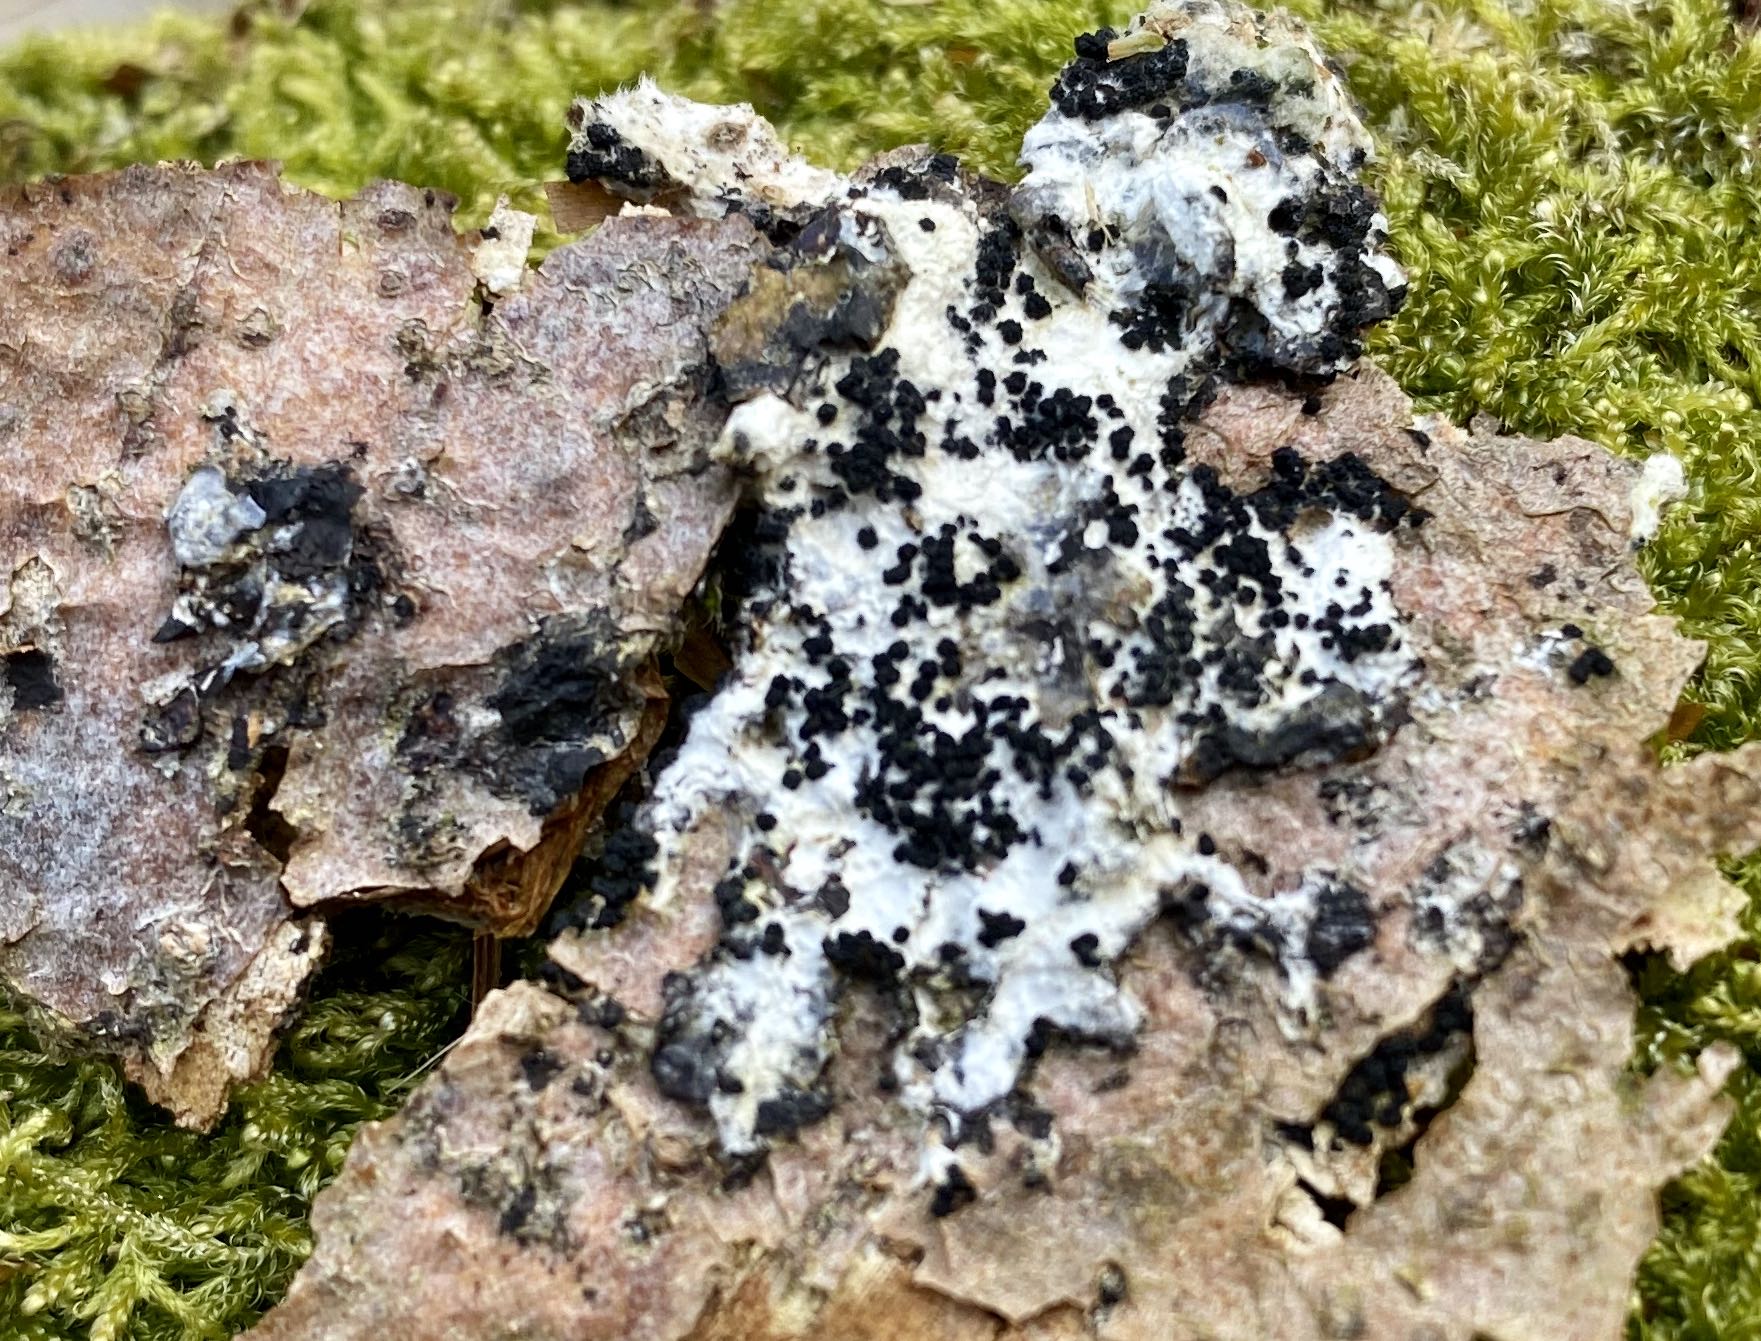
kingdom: Fungi
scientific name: Fungi
